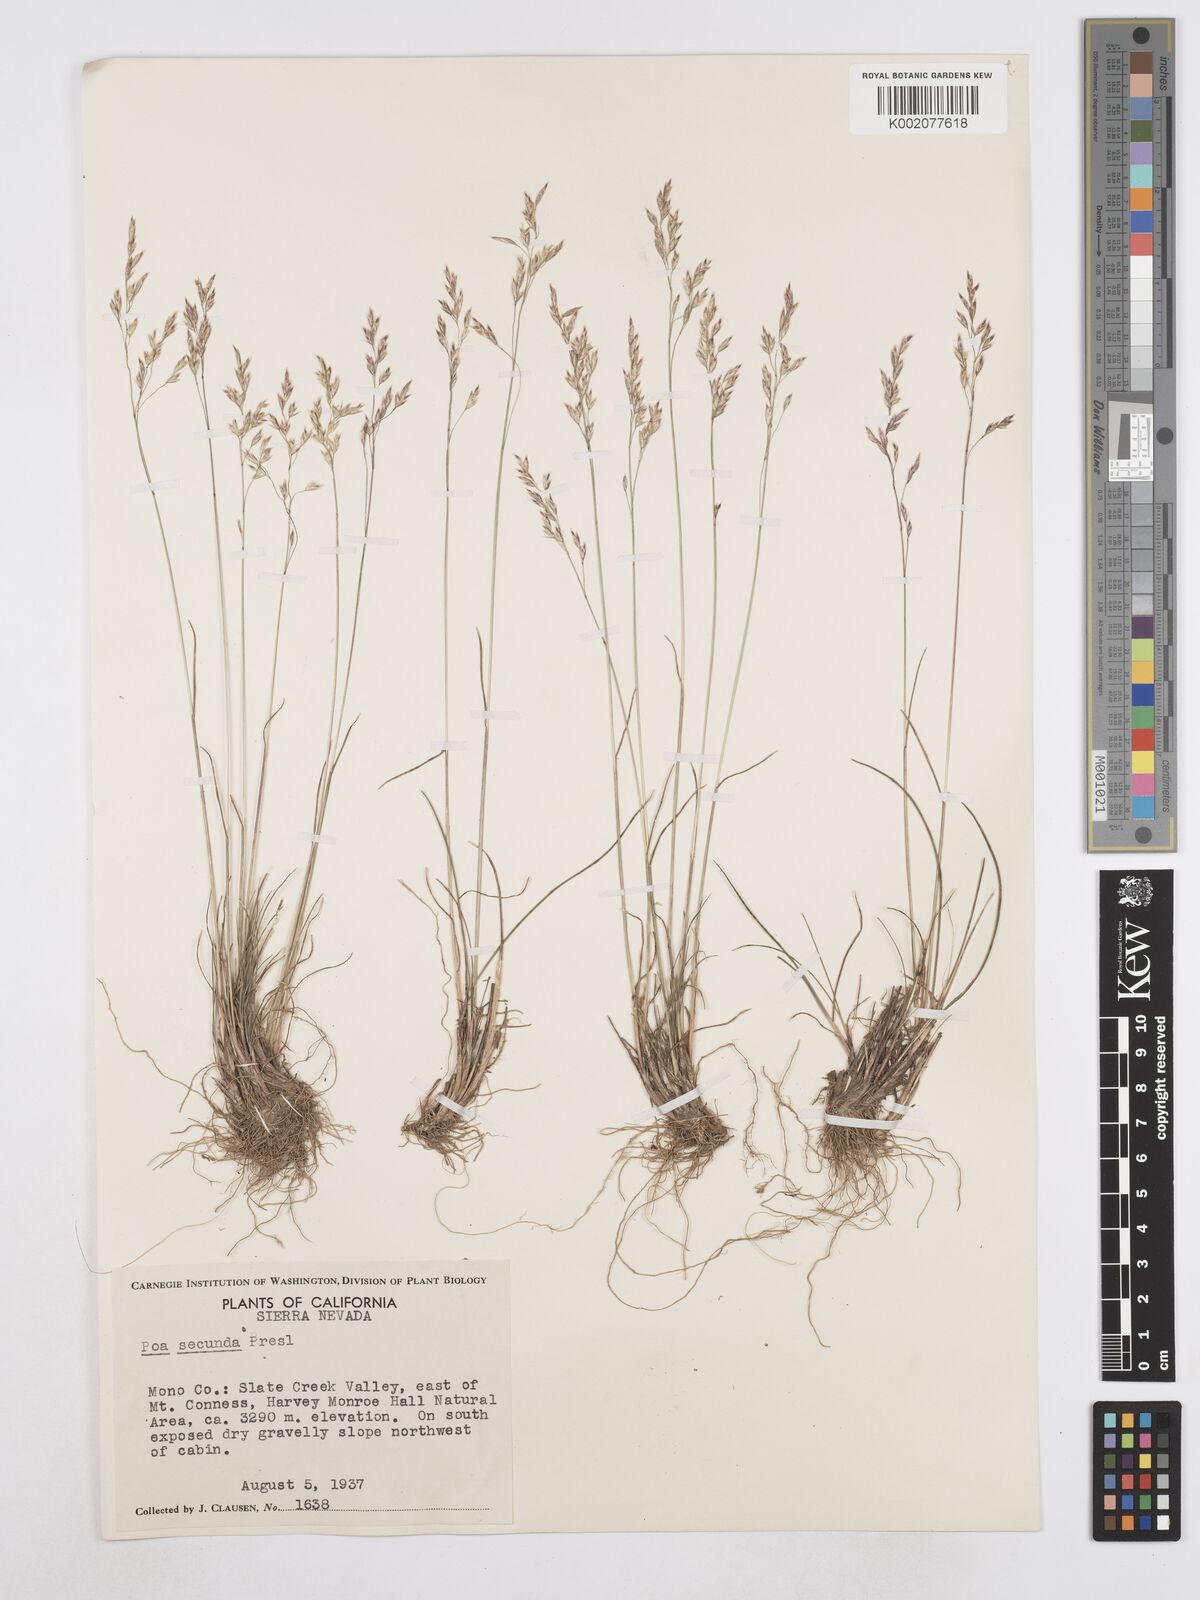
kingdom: Plantae
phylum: Tracheophyta
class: Liliopsida
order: Poales
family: Poaceae
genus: Poa
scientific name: Poa secunda
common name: Sandberg bluegrass
